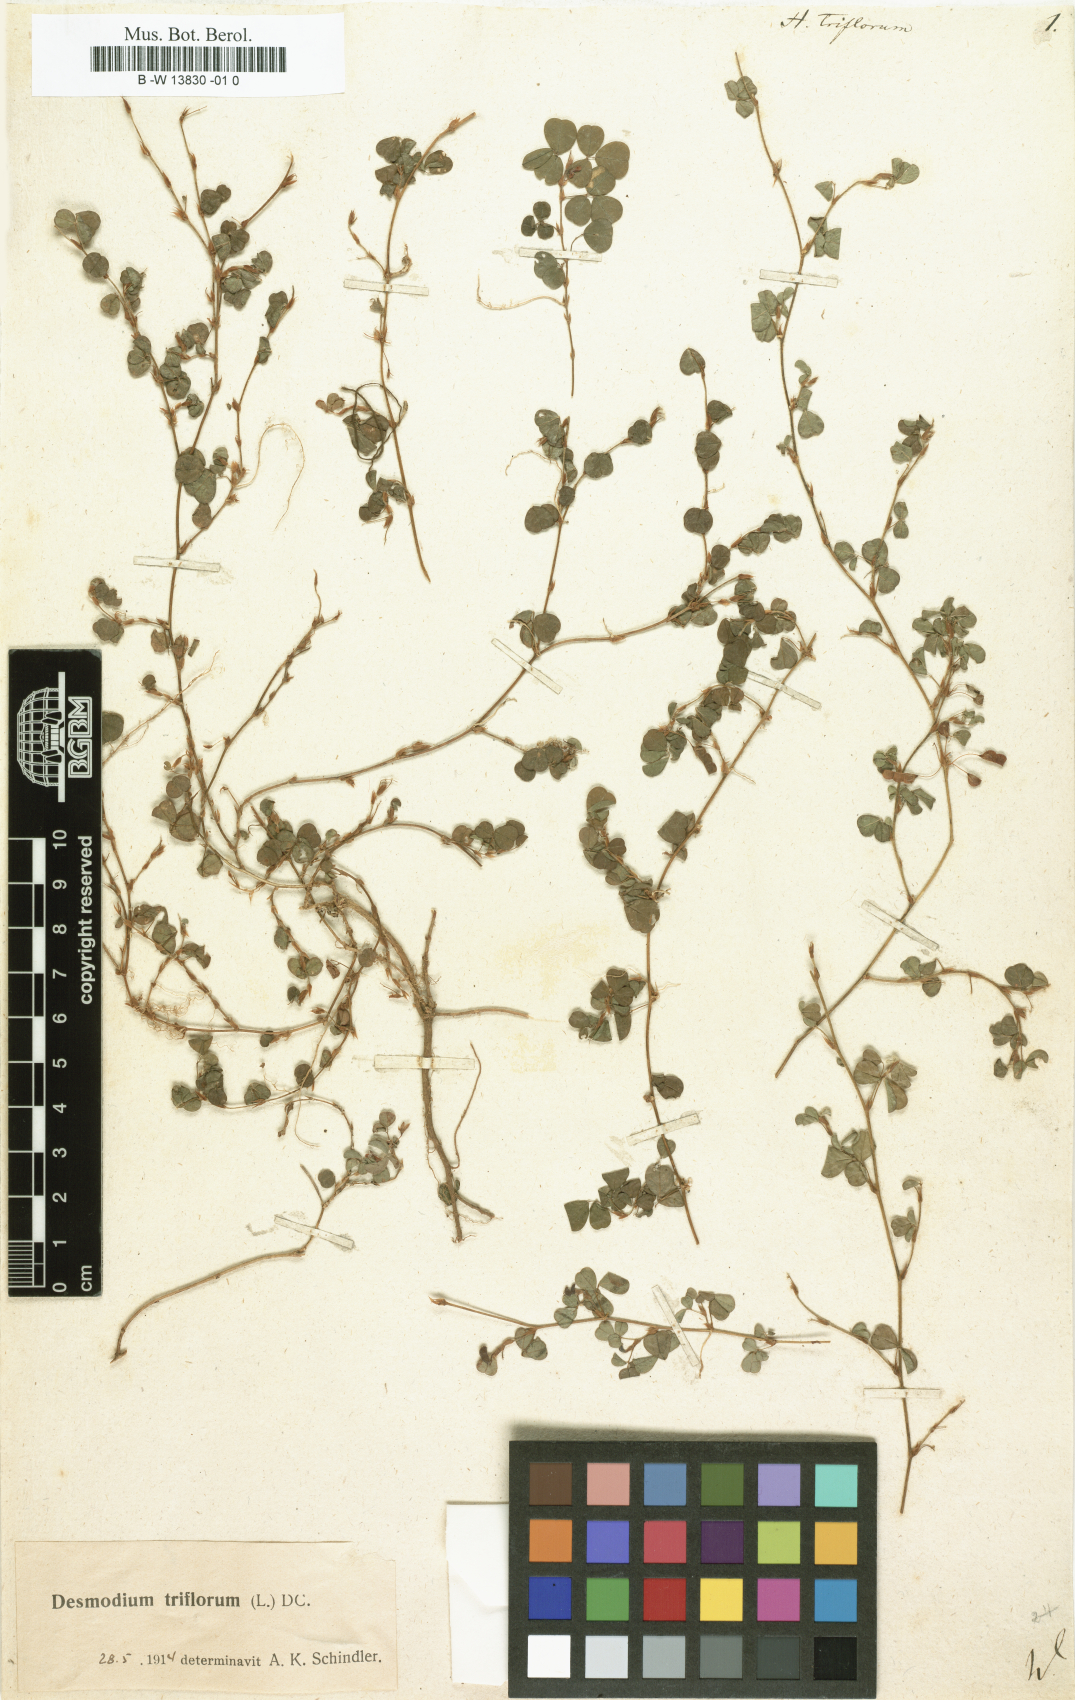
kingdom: Plantae
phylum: Tracheophyta
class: Magnoliopsida
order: Fabales
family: Fabaceae
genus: Grona
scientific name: Grona triflora
